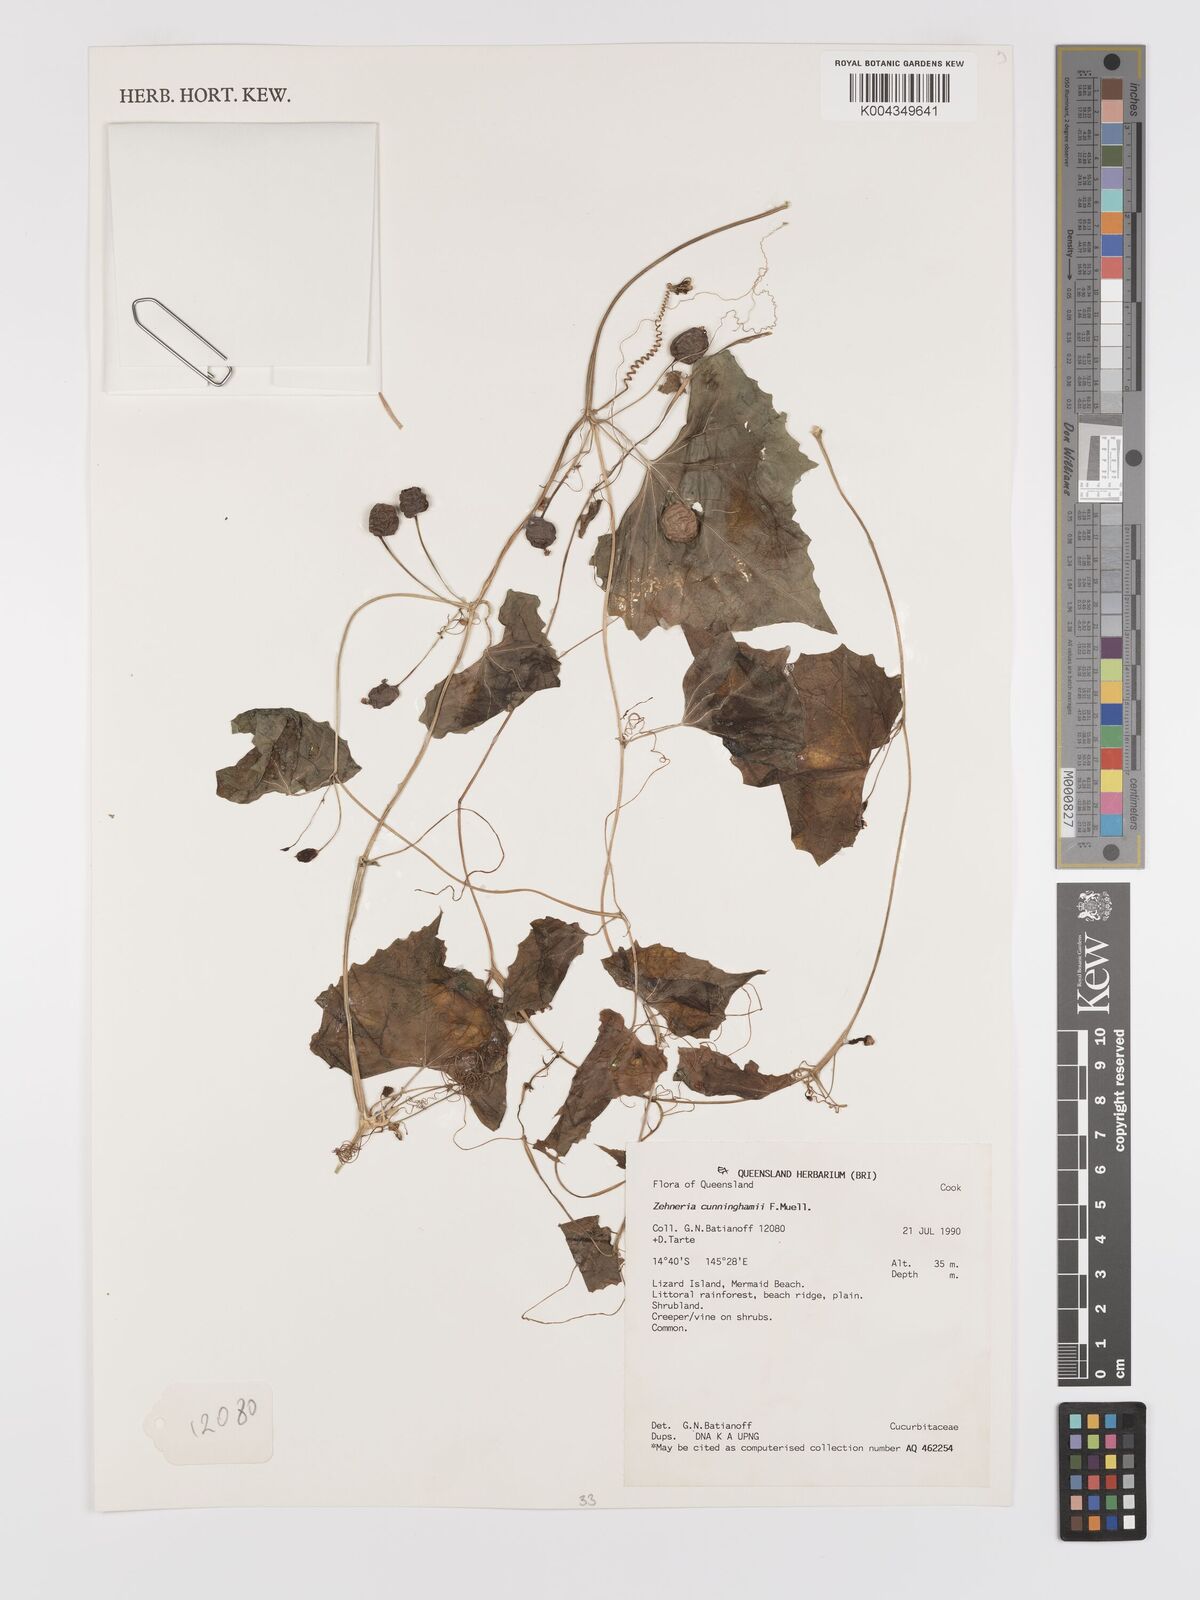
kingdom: Plantae
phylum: Tracheophyta
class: Magnoliopsida
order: Cucurbitales
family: Cucurbitaceae
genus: Zehneria
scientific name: Zehneria cunninghamii
